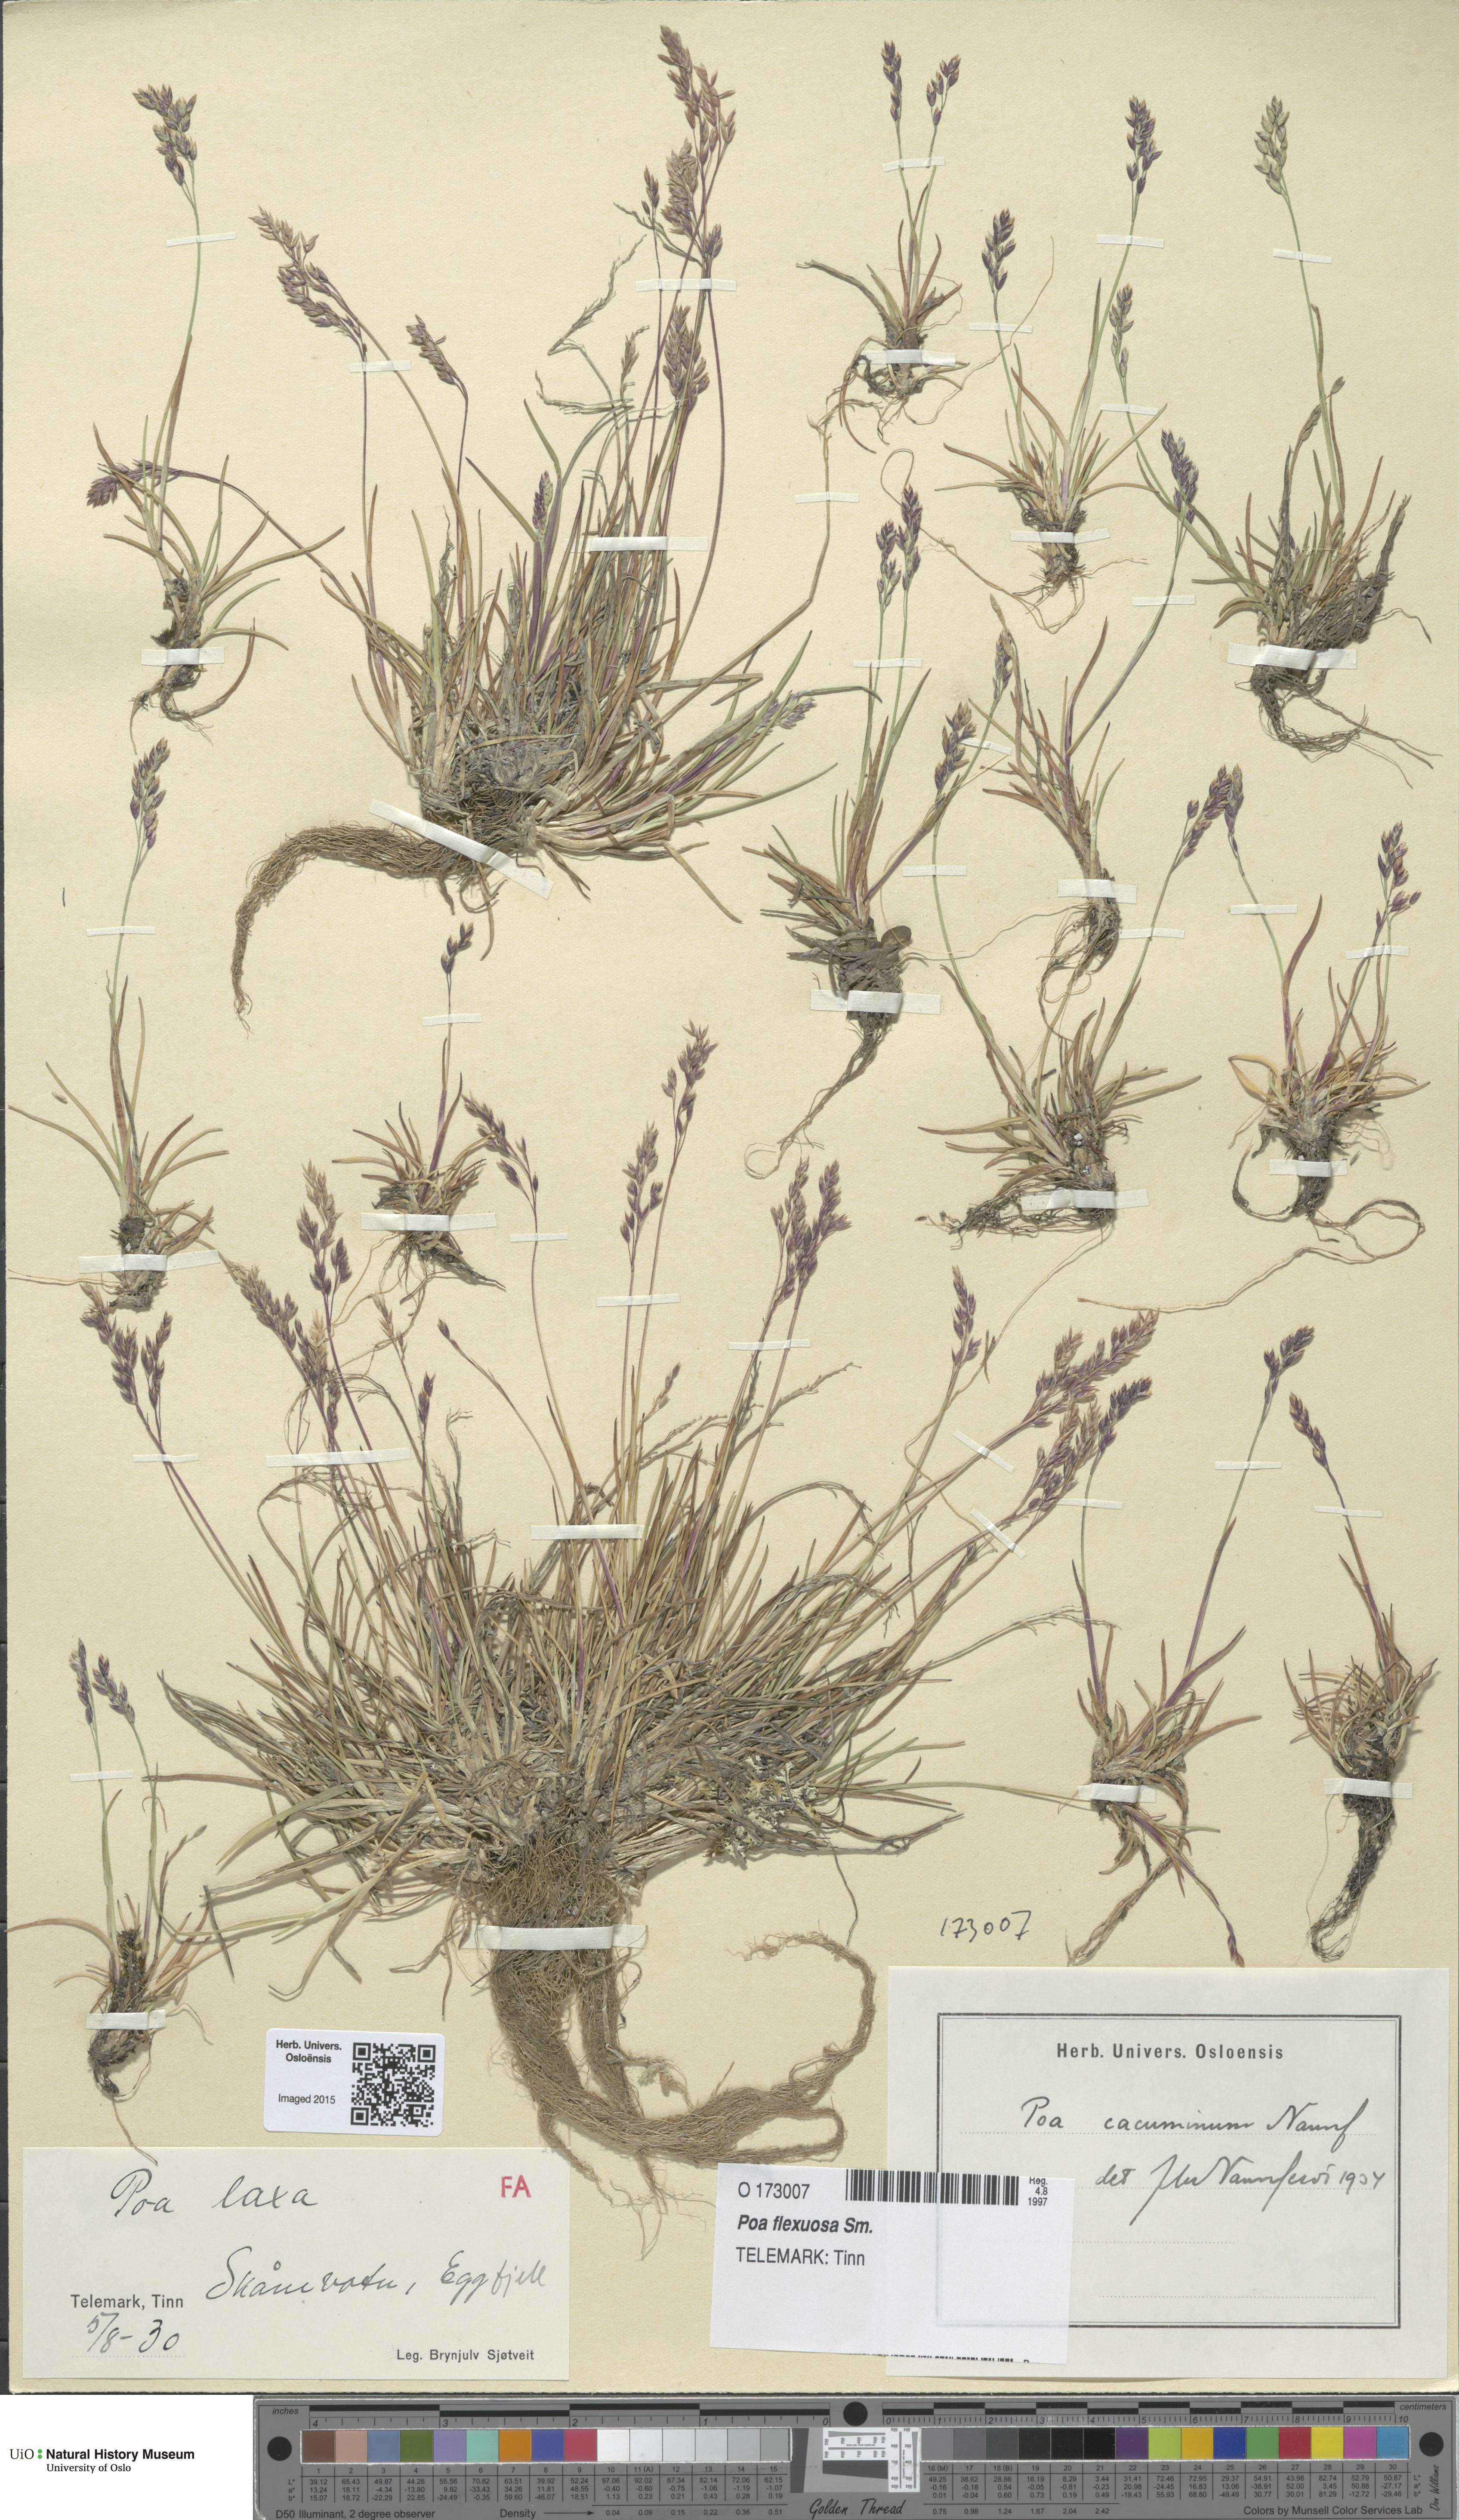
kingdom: Plantae
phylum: Tracheophyta
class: Liliopsida
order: Poales
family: Poaceae
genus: Poa
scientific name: Poa flexuosa
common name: Wavy meadow-grass
